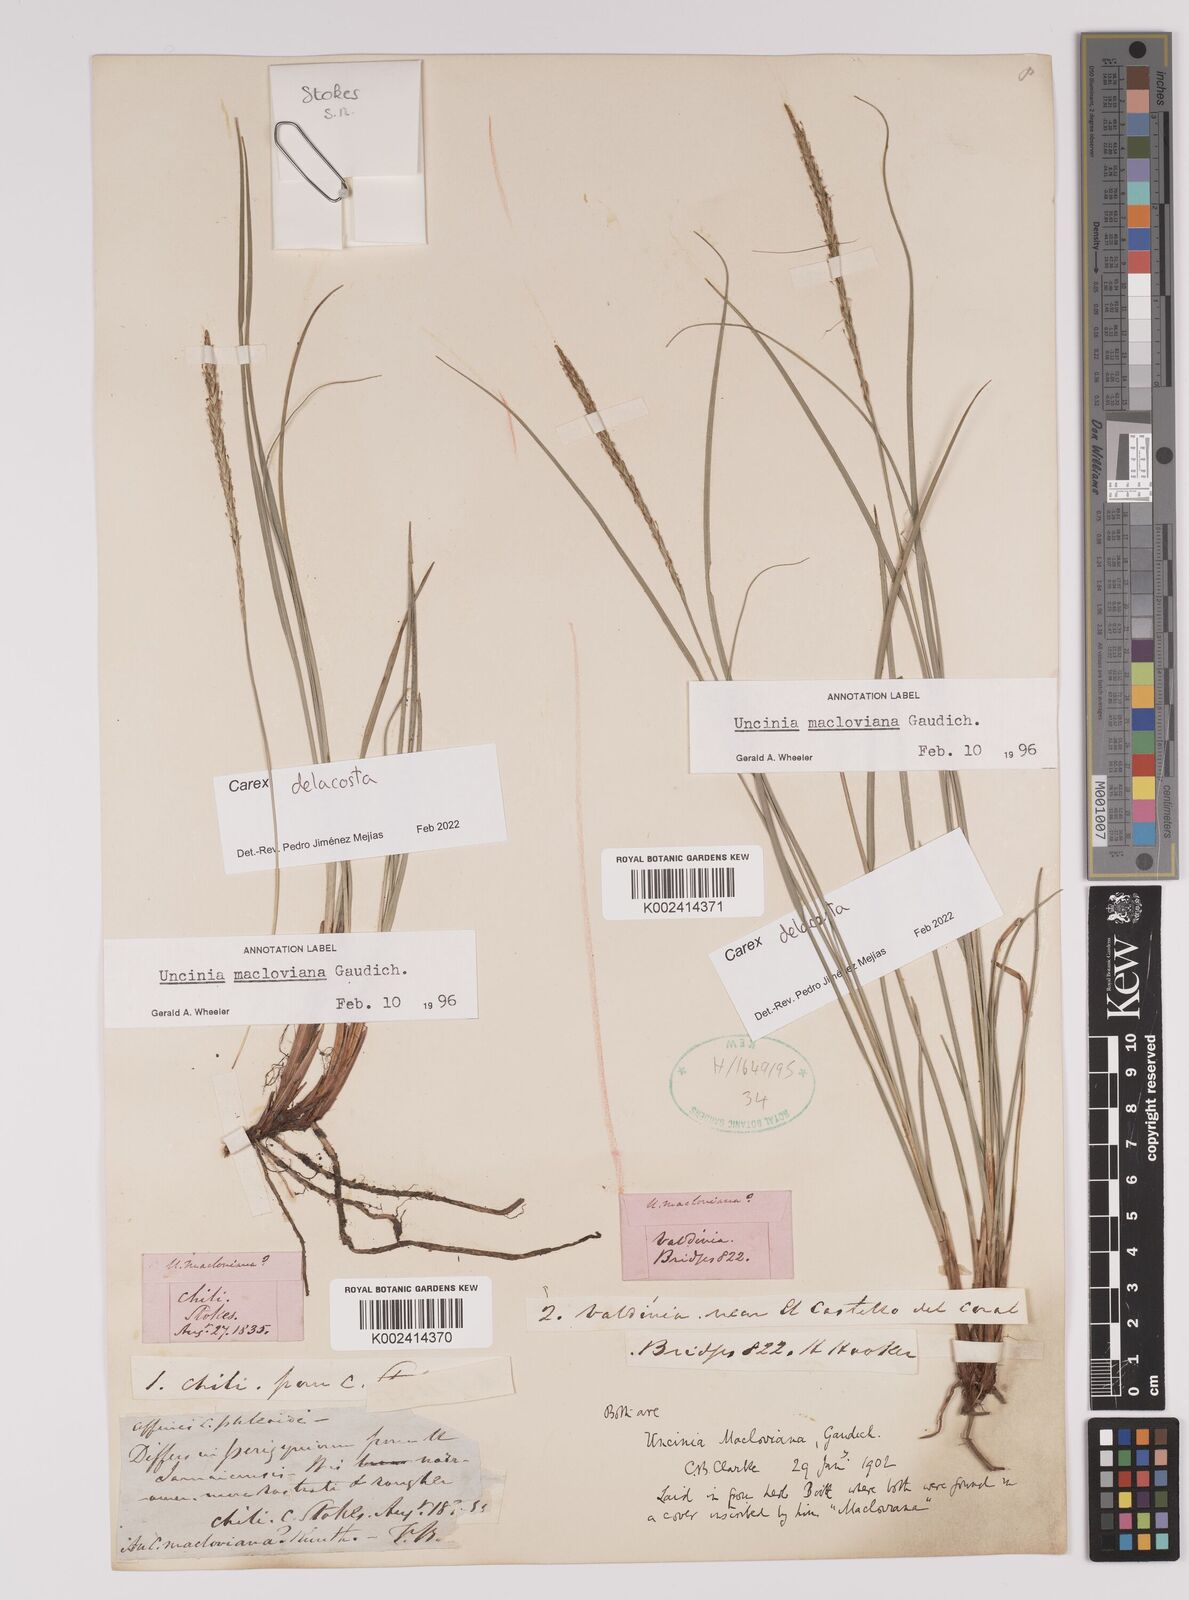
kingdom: Plantae
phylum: Tracheophyta
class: Liliopsida
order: Poales
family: Cyperaceae
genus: Carex
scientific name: Carex delacosta
